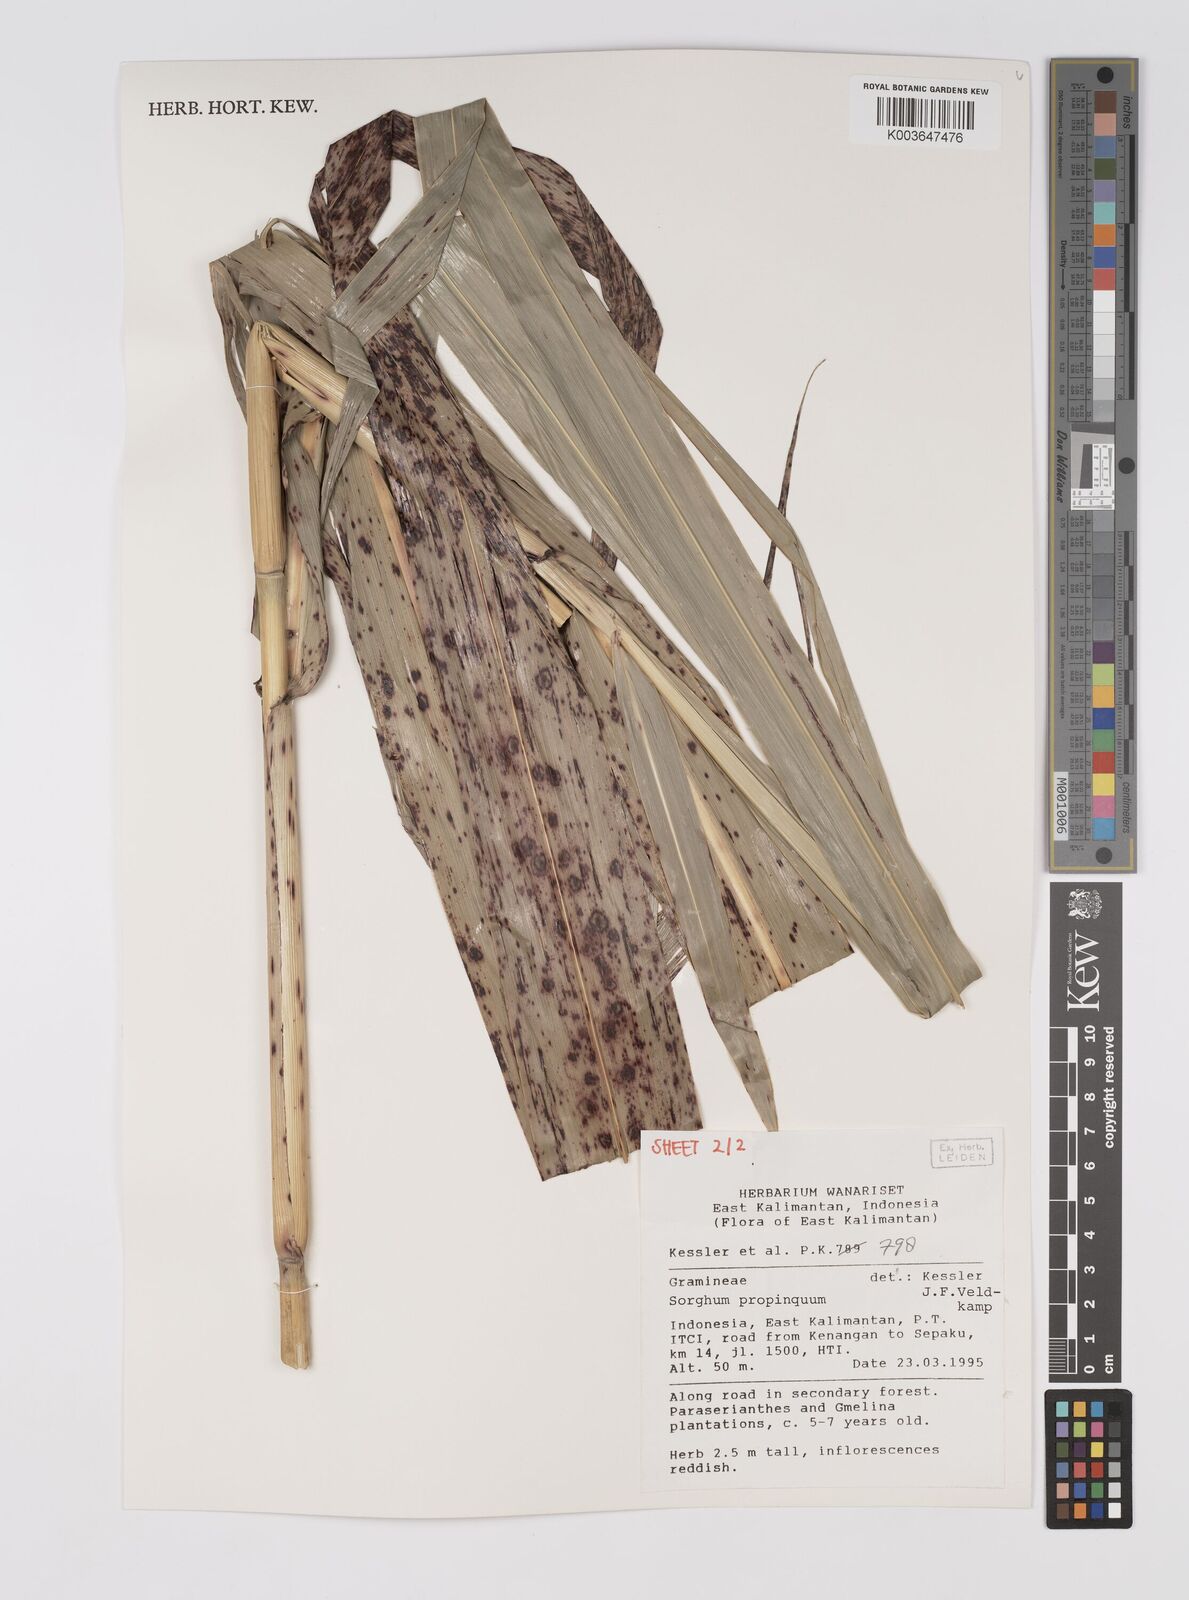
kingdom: Plantae
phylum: Tracheophyta
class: Liliopsida
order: Poales
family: Poaceae
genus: Sorghum
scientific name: Sorghum propinquum
